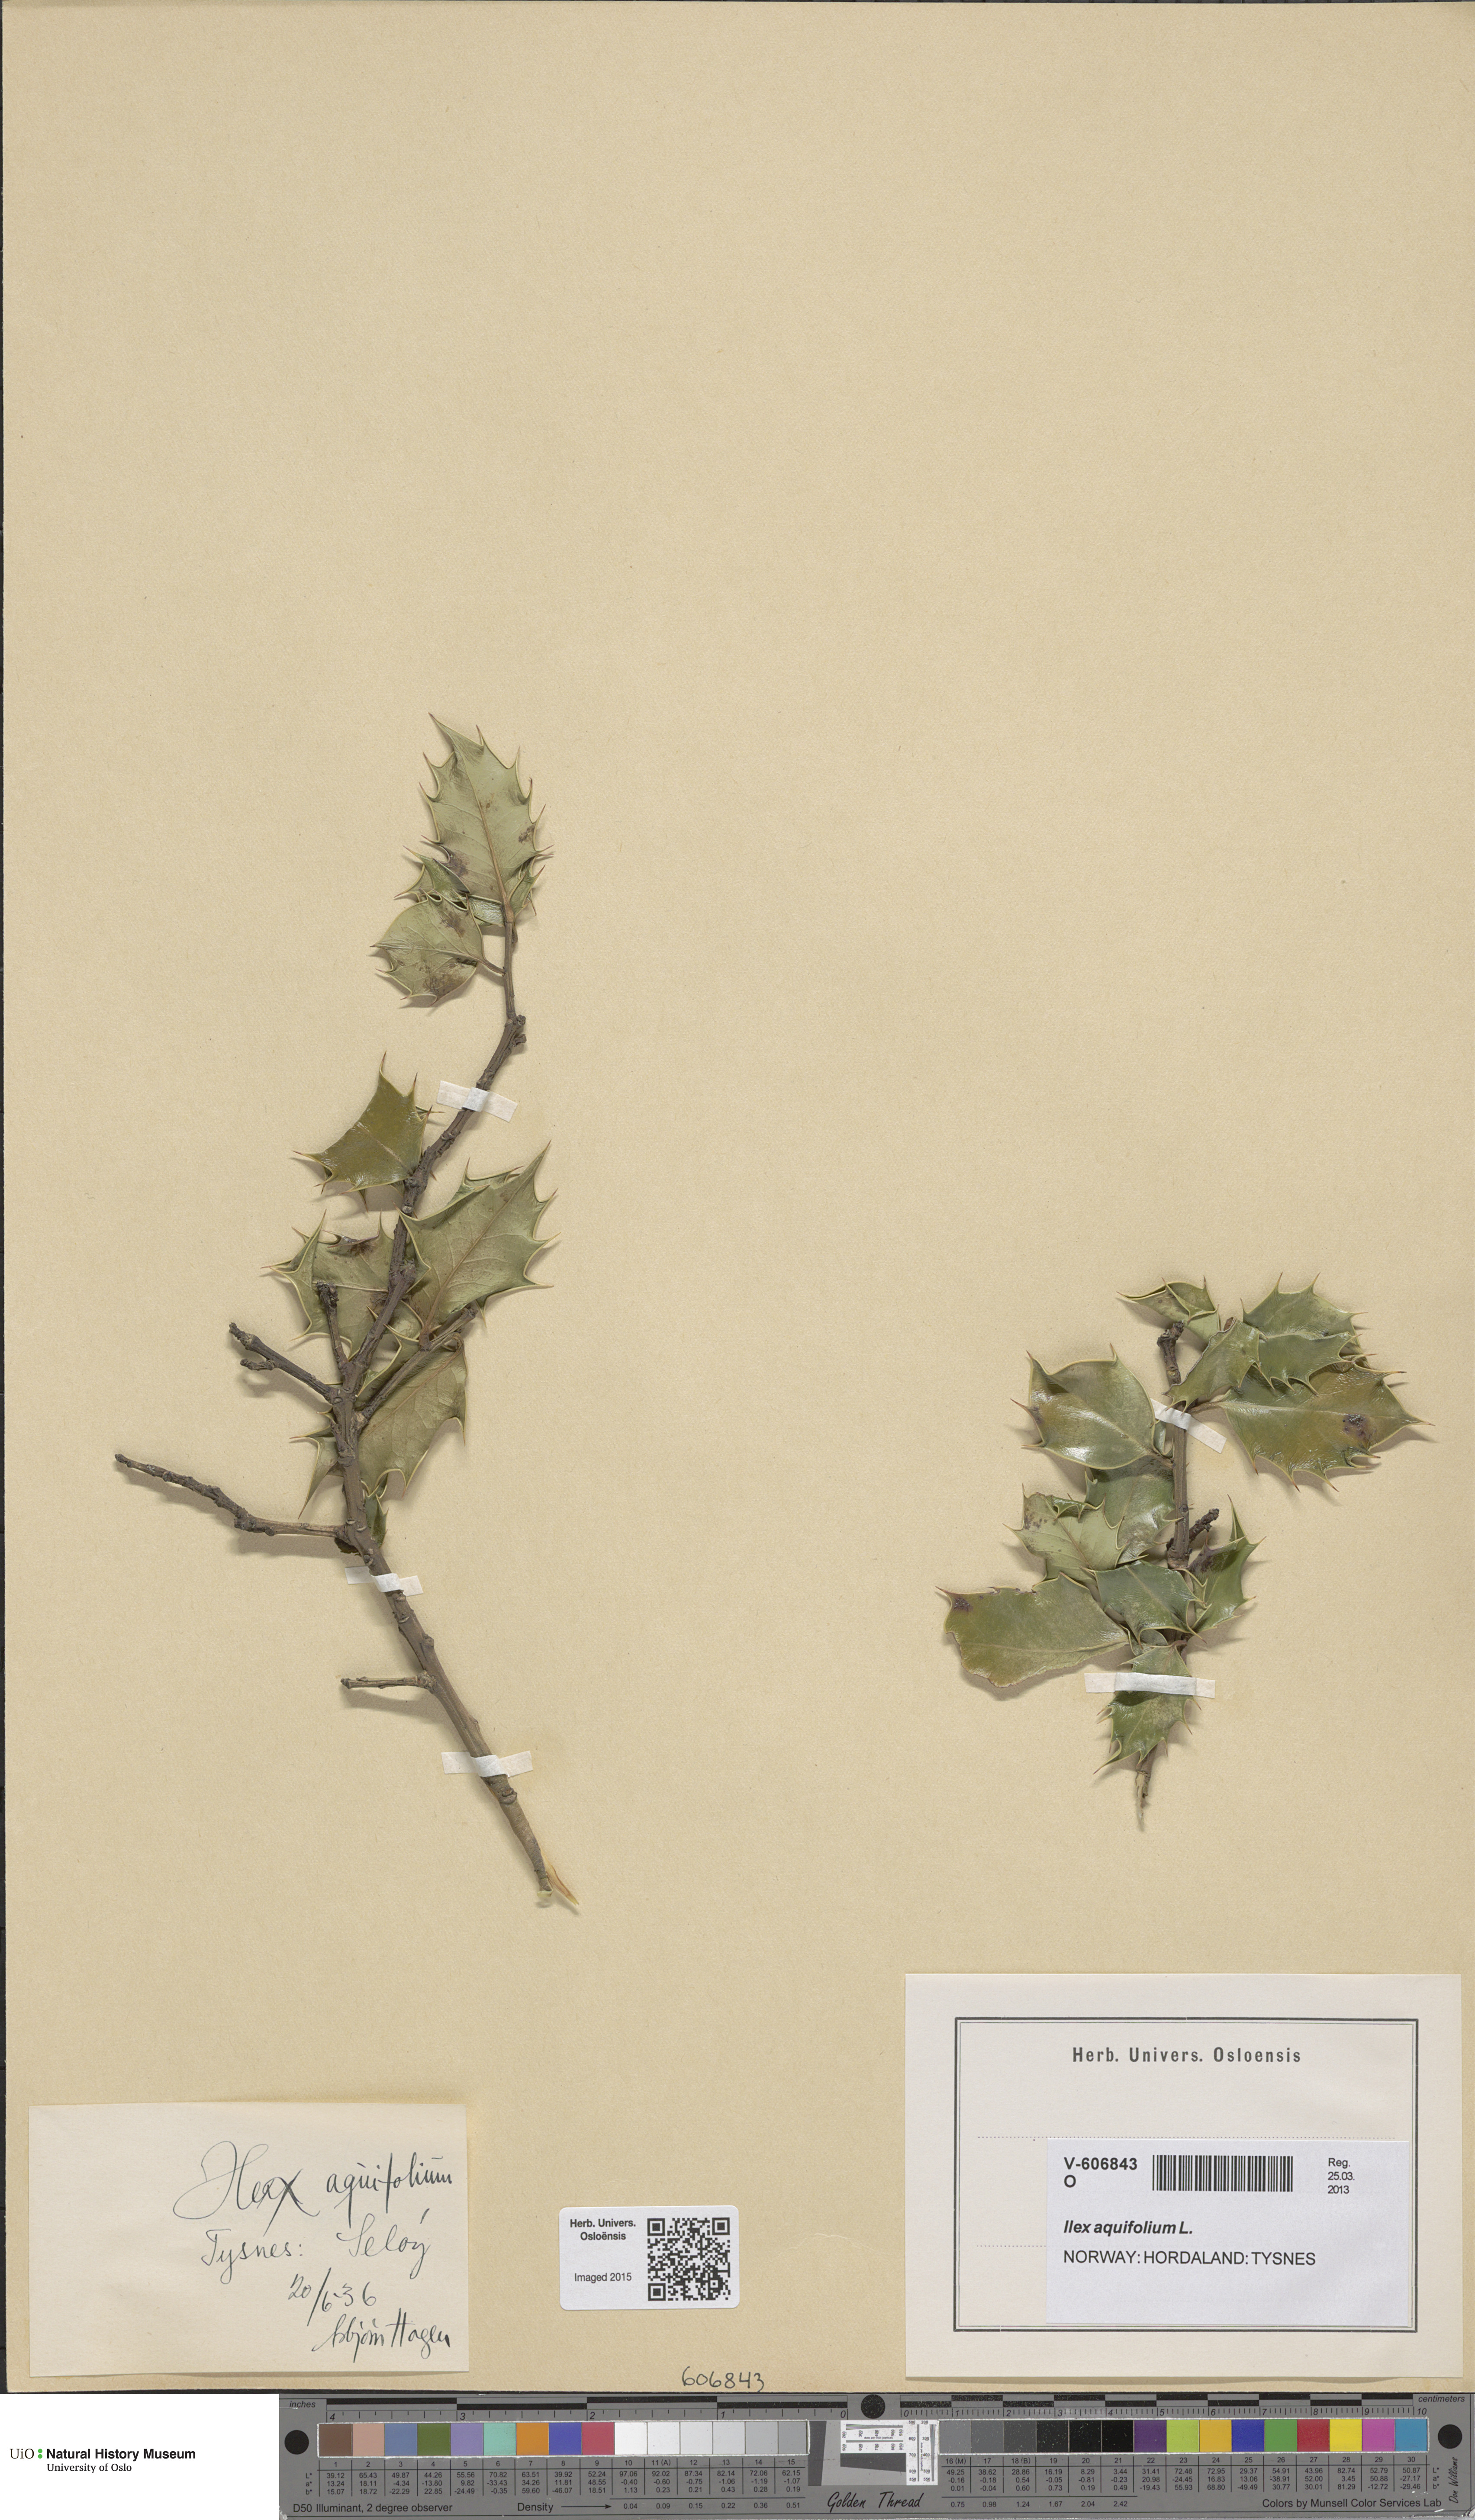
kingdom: Plantae
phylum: Tracheophyta
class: Magnoliopsida
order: Aquifoliales
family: Aquifoliaceae
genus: Ilex
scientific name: Ilex aquifolium
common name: English holly
